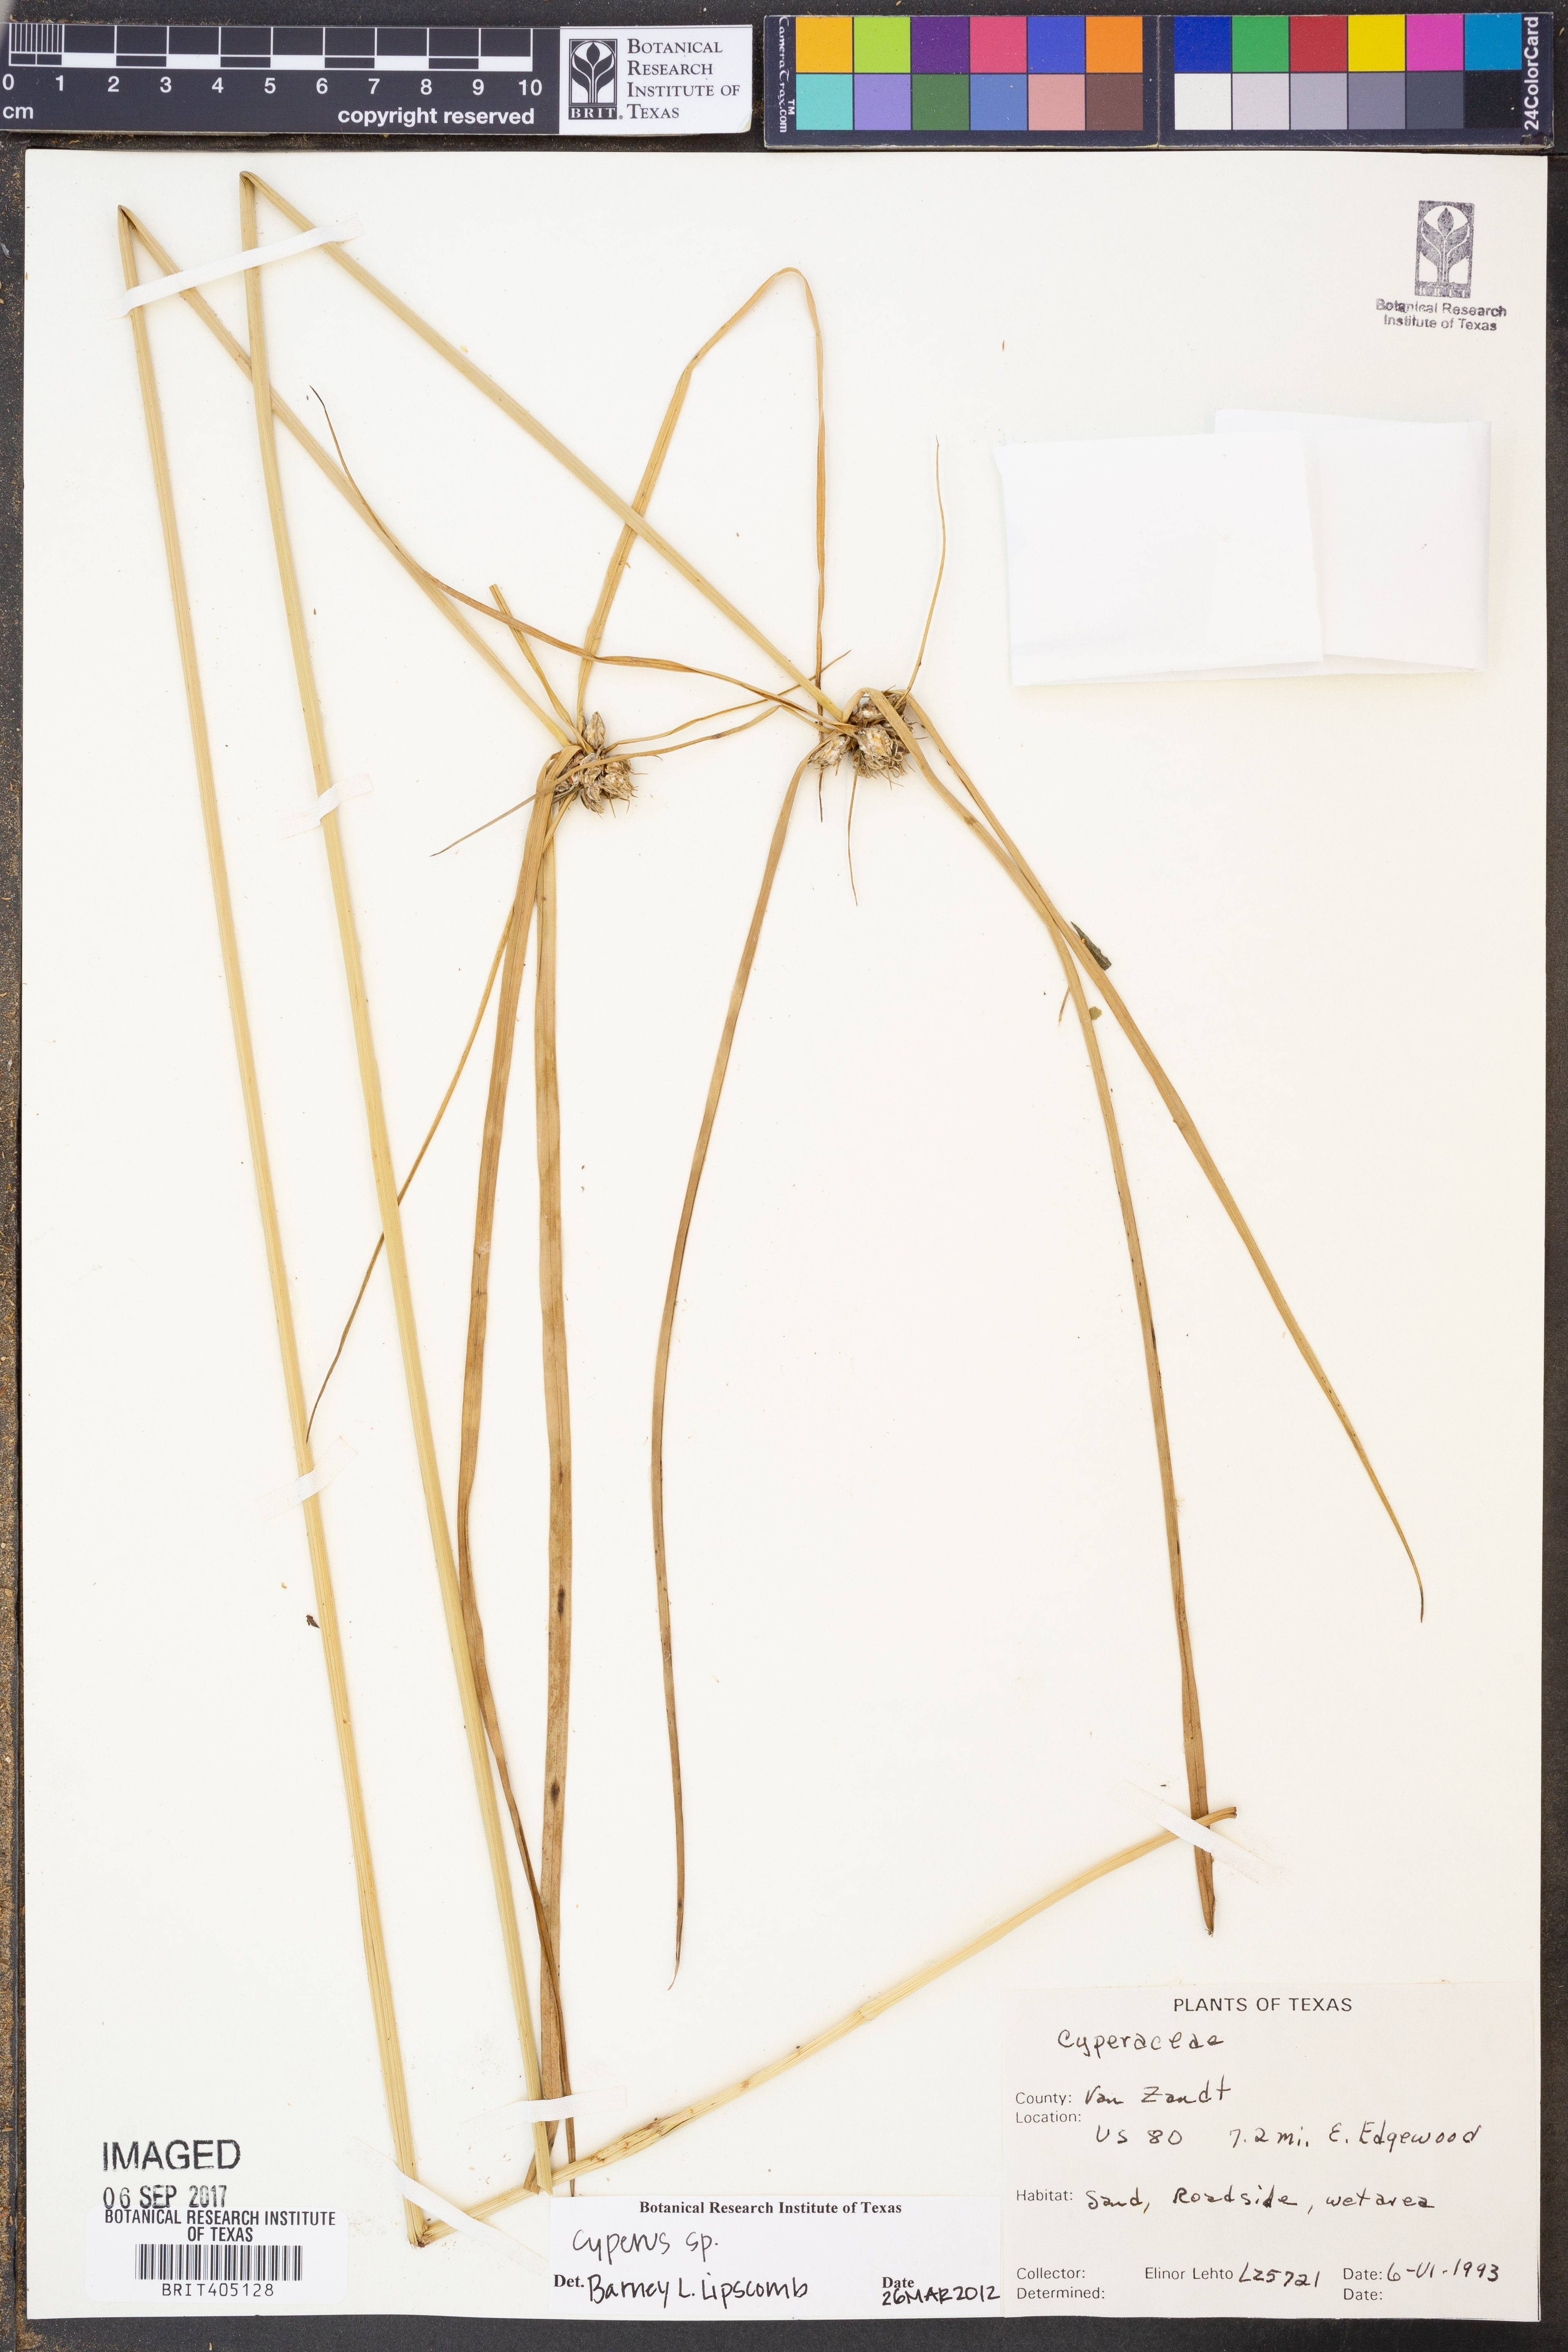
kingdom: Plantae
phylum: Tracheophyta
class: Liliopsida
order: Poales
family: Cyperaceae
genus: Cyperus
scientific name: Cyperus
